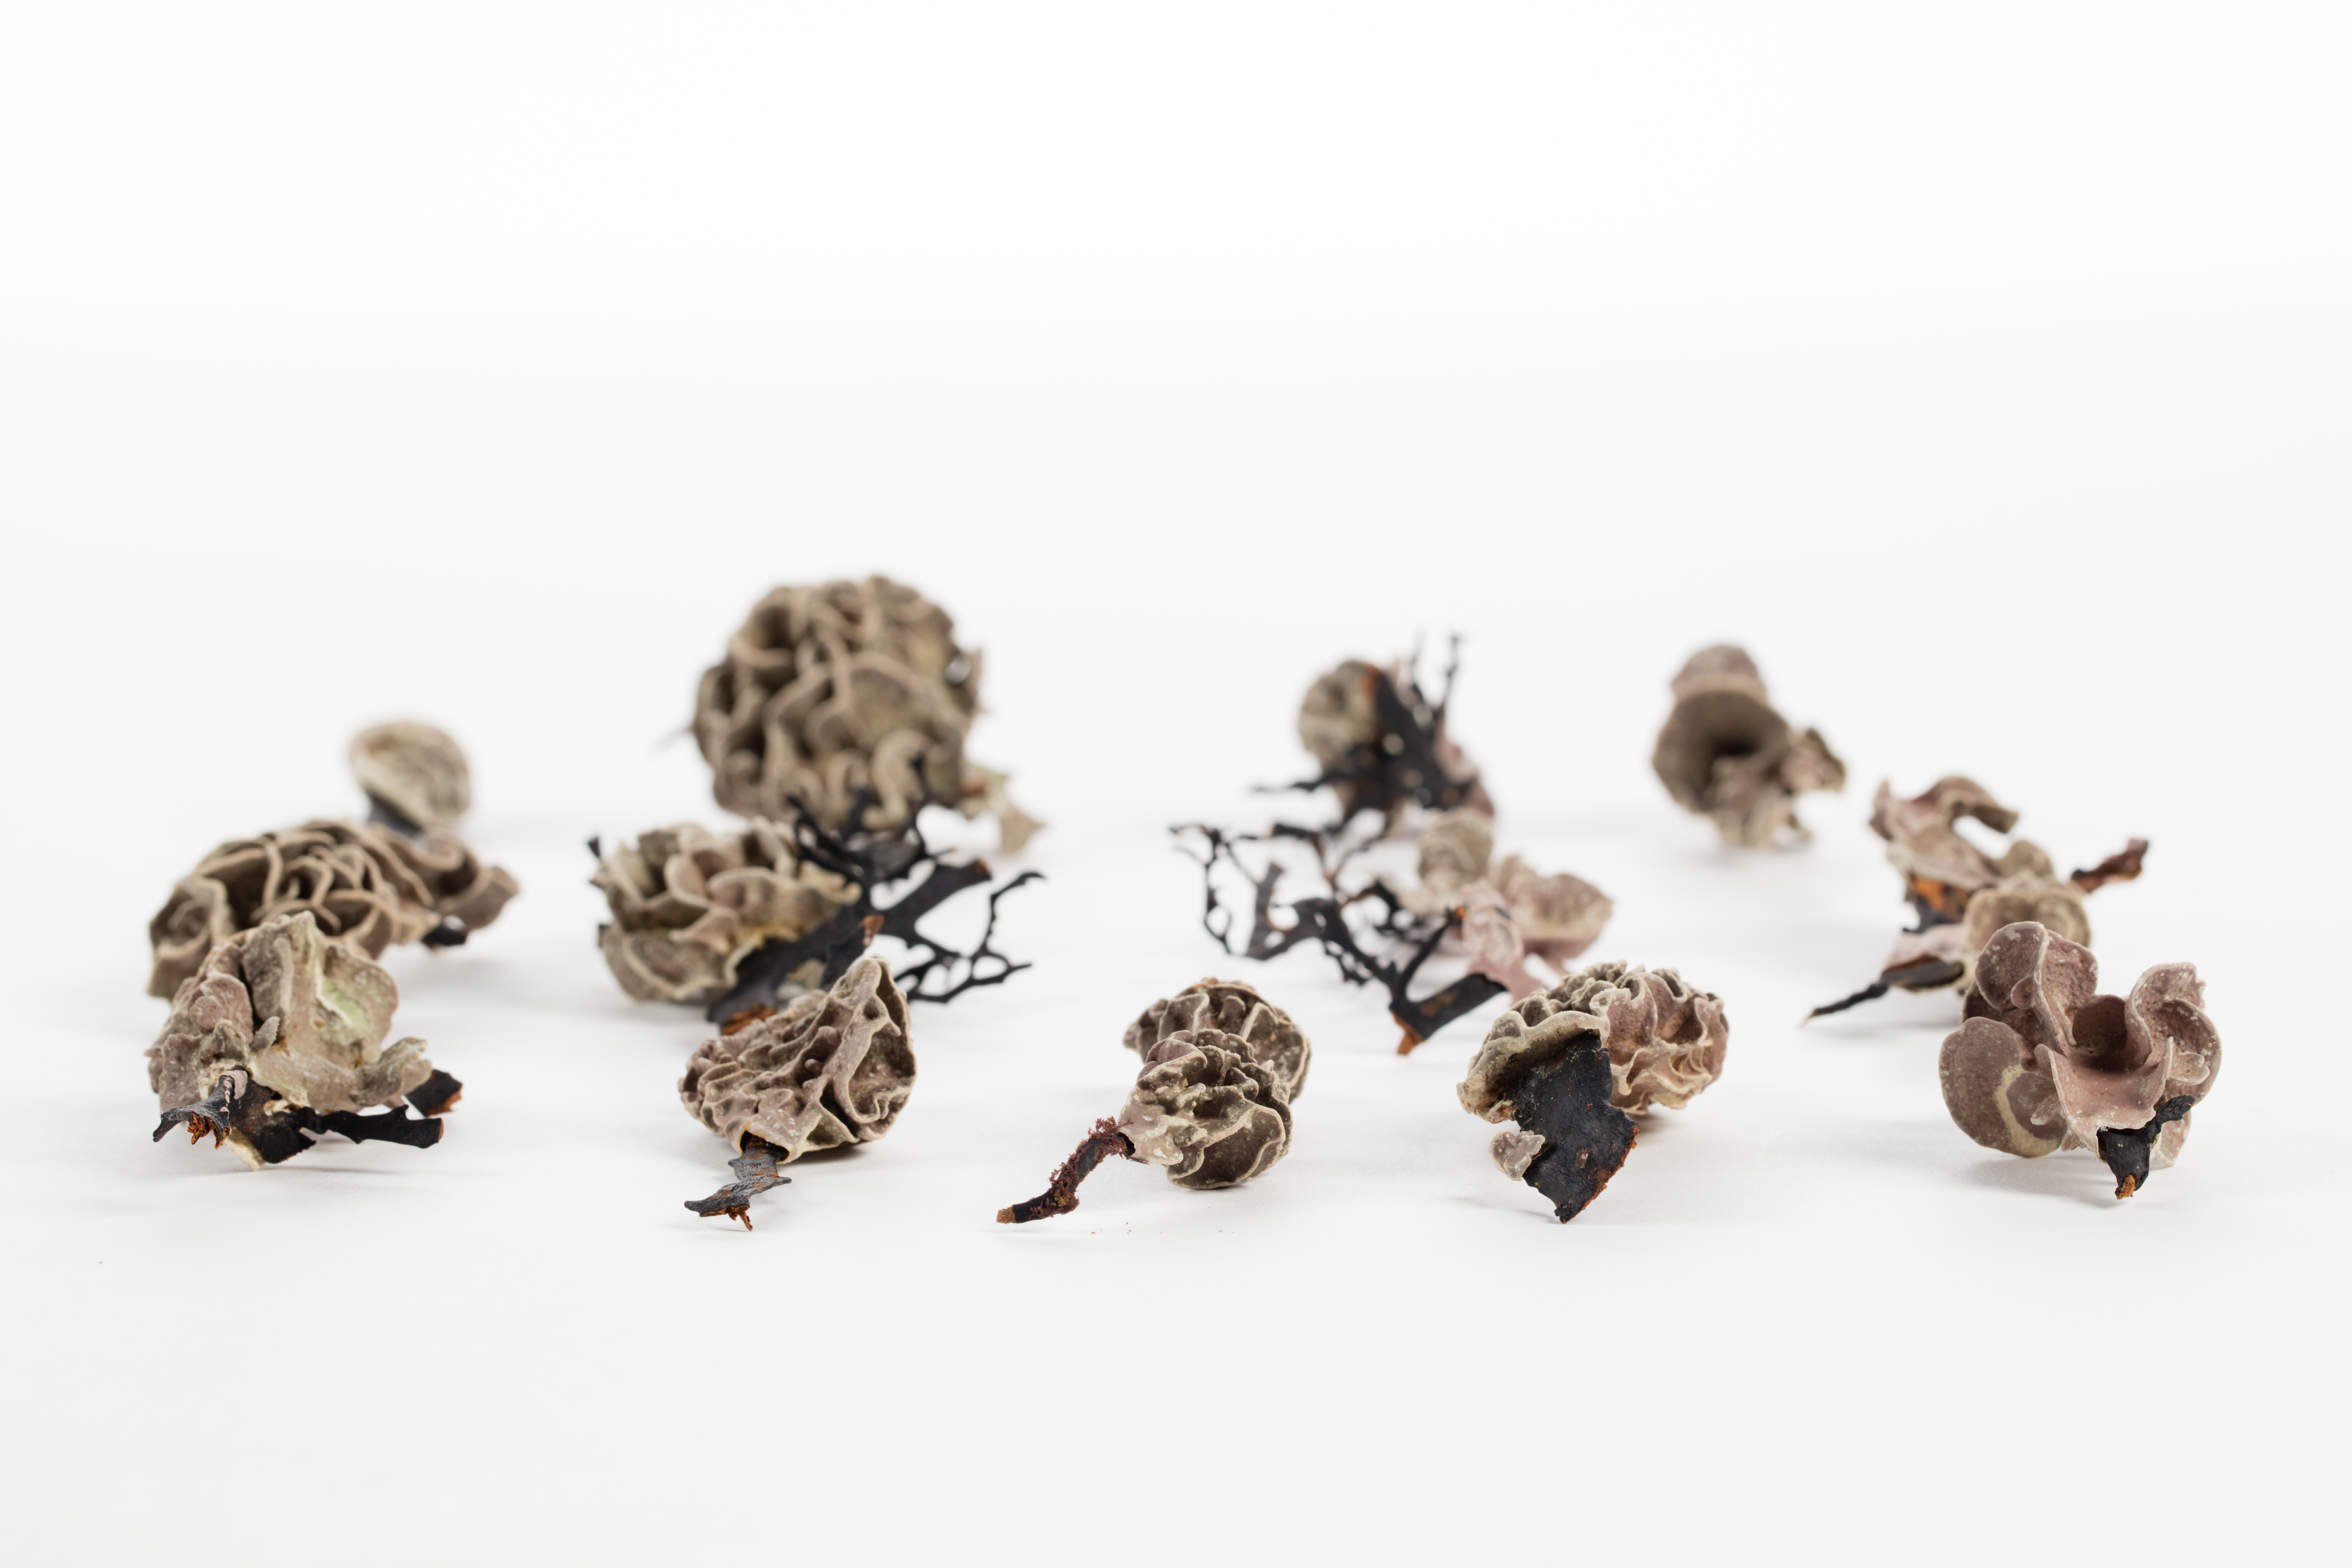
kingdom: Plantae
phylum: Rhodophyta
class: Florideophyceae
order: Corallinales
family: Lithophyllaceae
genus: Lithophyllum
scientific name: Lithophyllum carpophylli
